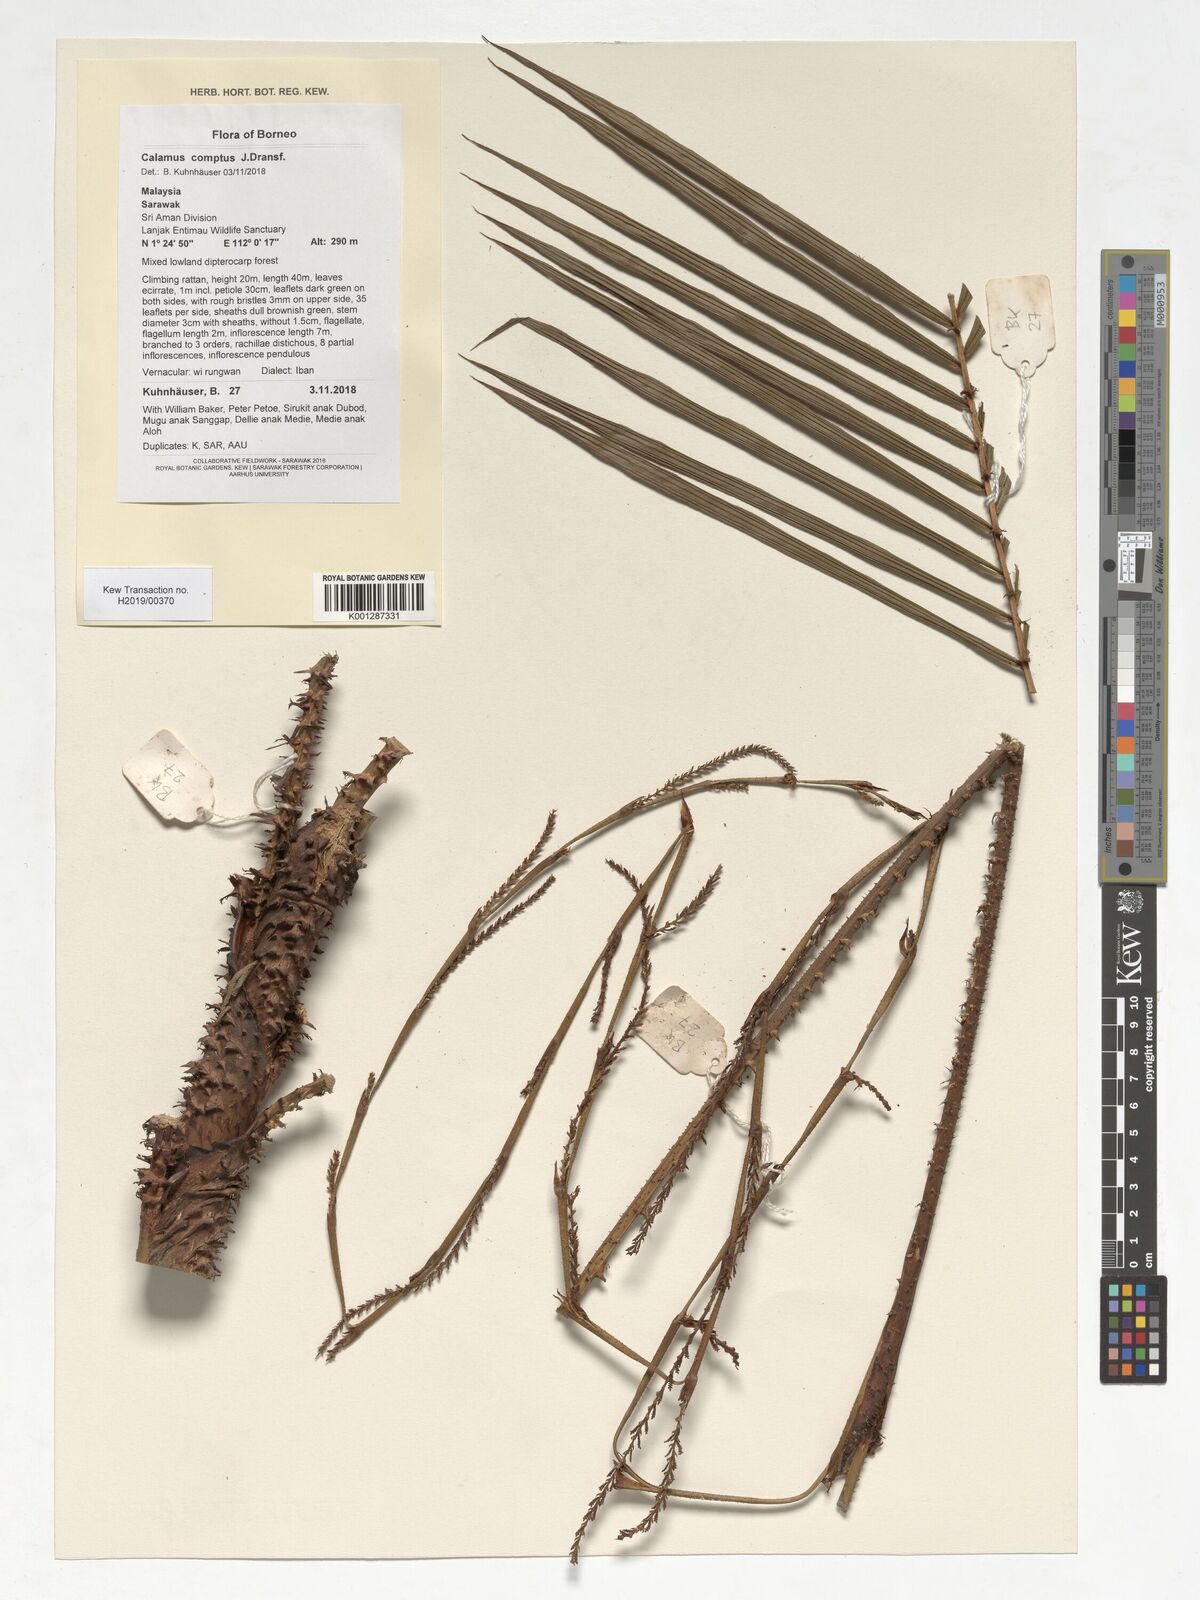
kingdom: Plantae
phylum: Tracheophyta
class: Liliopsida
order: Arecales
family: Arecaceae
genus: Calamus
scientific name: Calamus comptus
